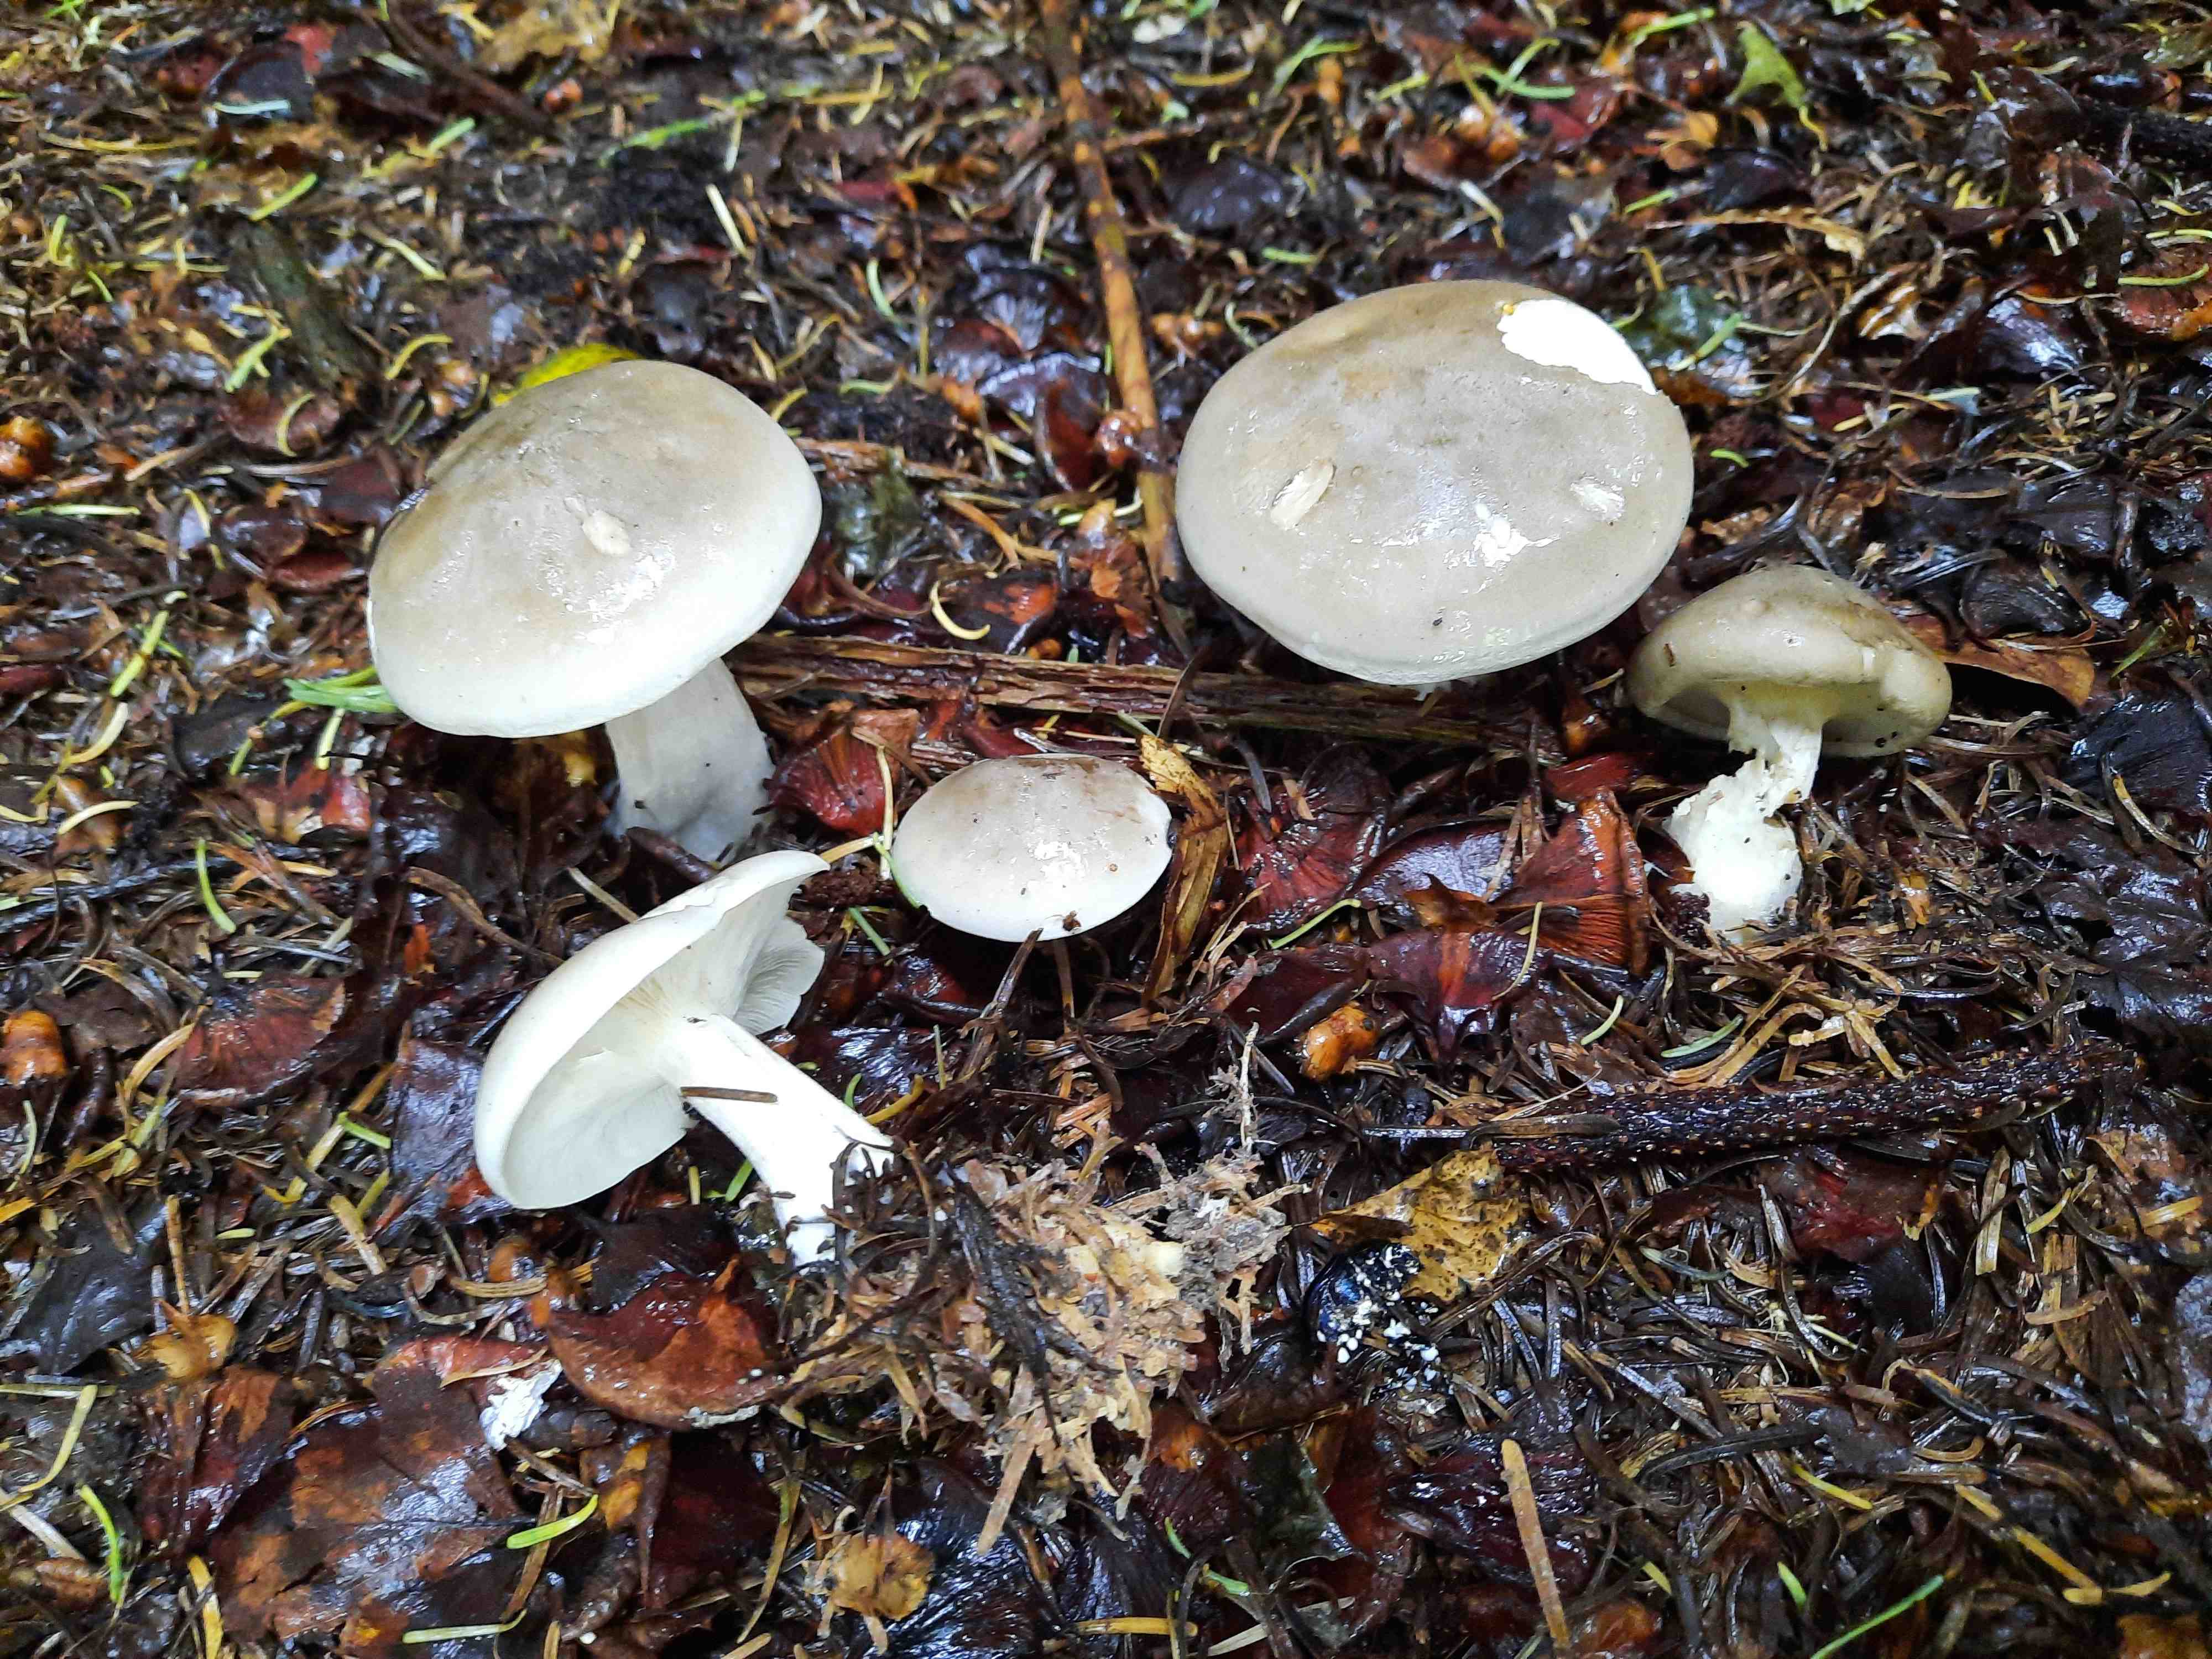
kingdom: Fungi
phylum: Basidiomycota
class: Agaricomycetes
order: Agaricales
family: Tricholomataceae
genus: Clitocybe
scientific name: Clitocybe nebularis
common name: tåge-tragthat
